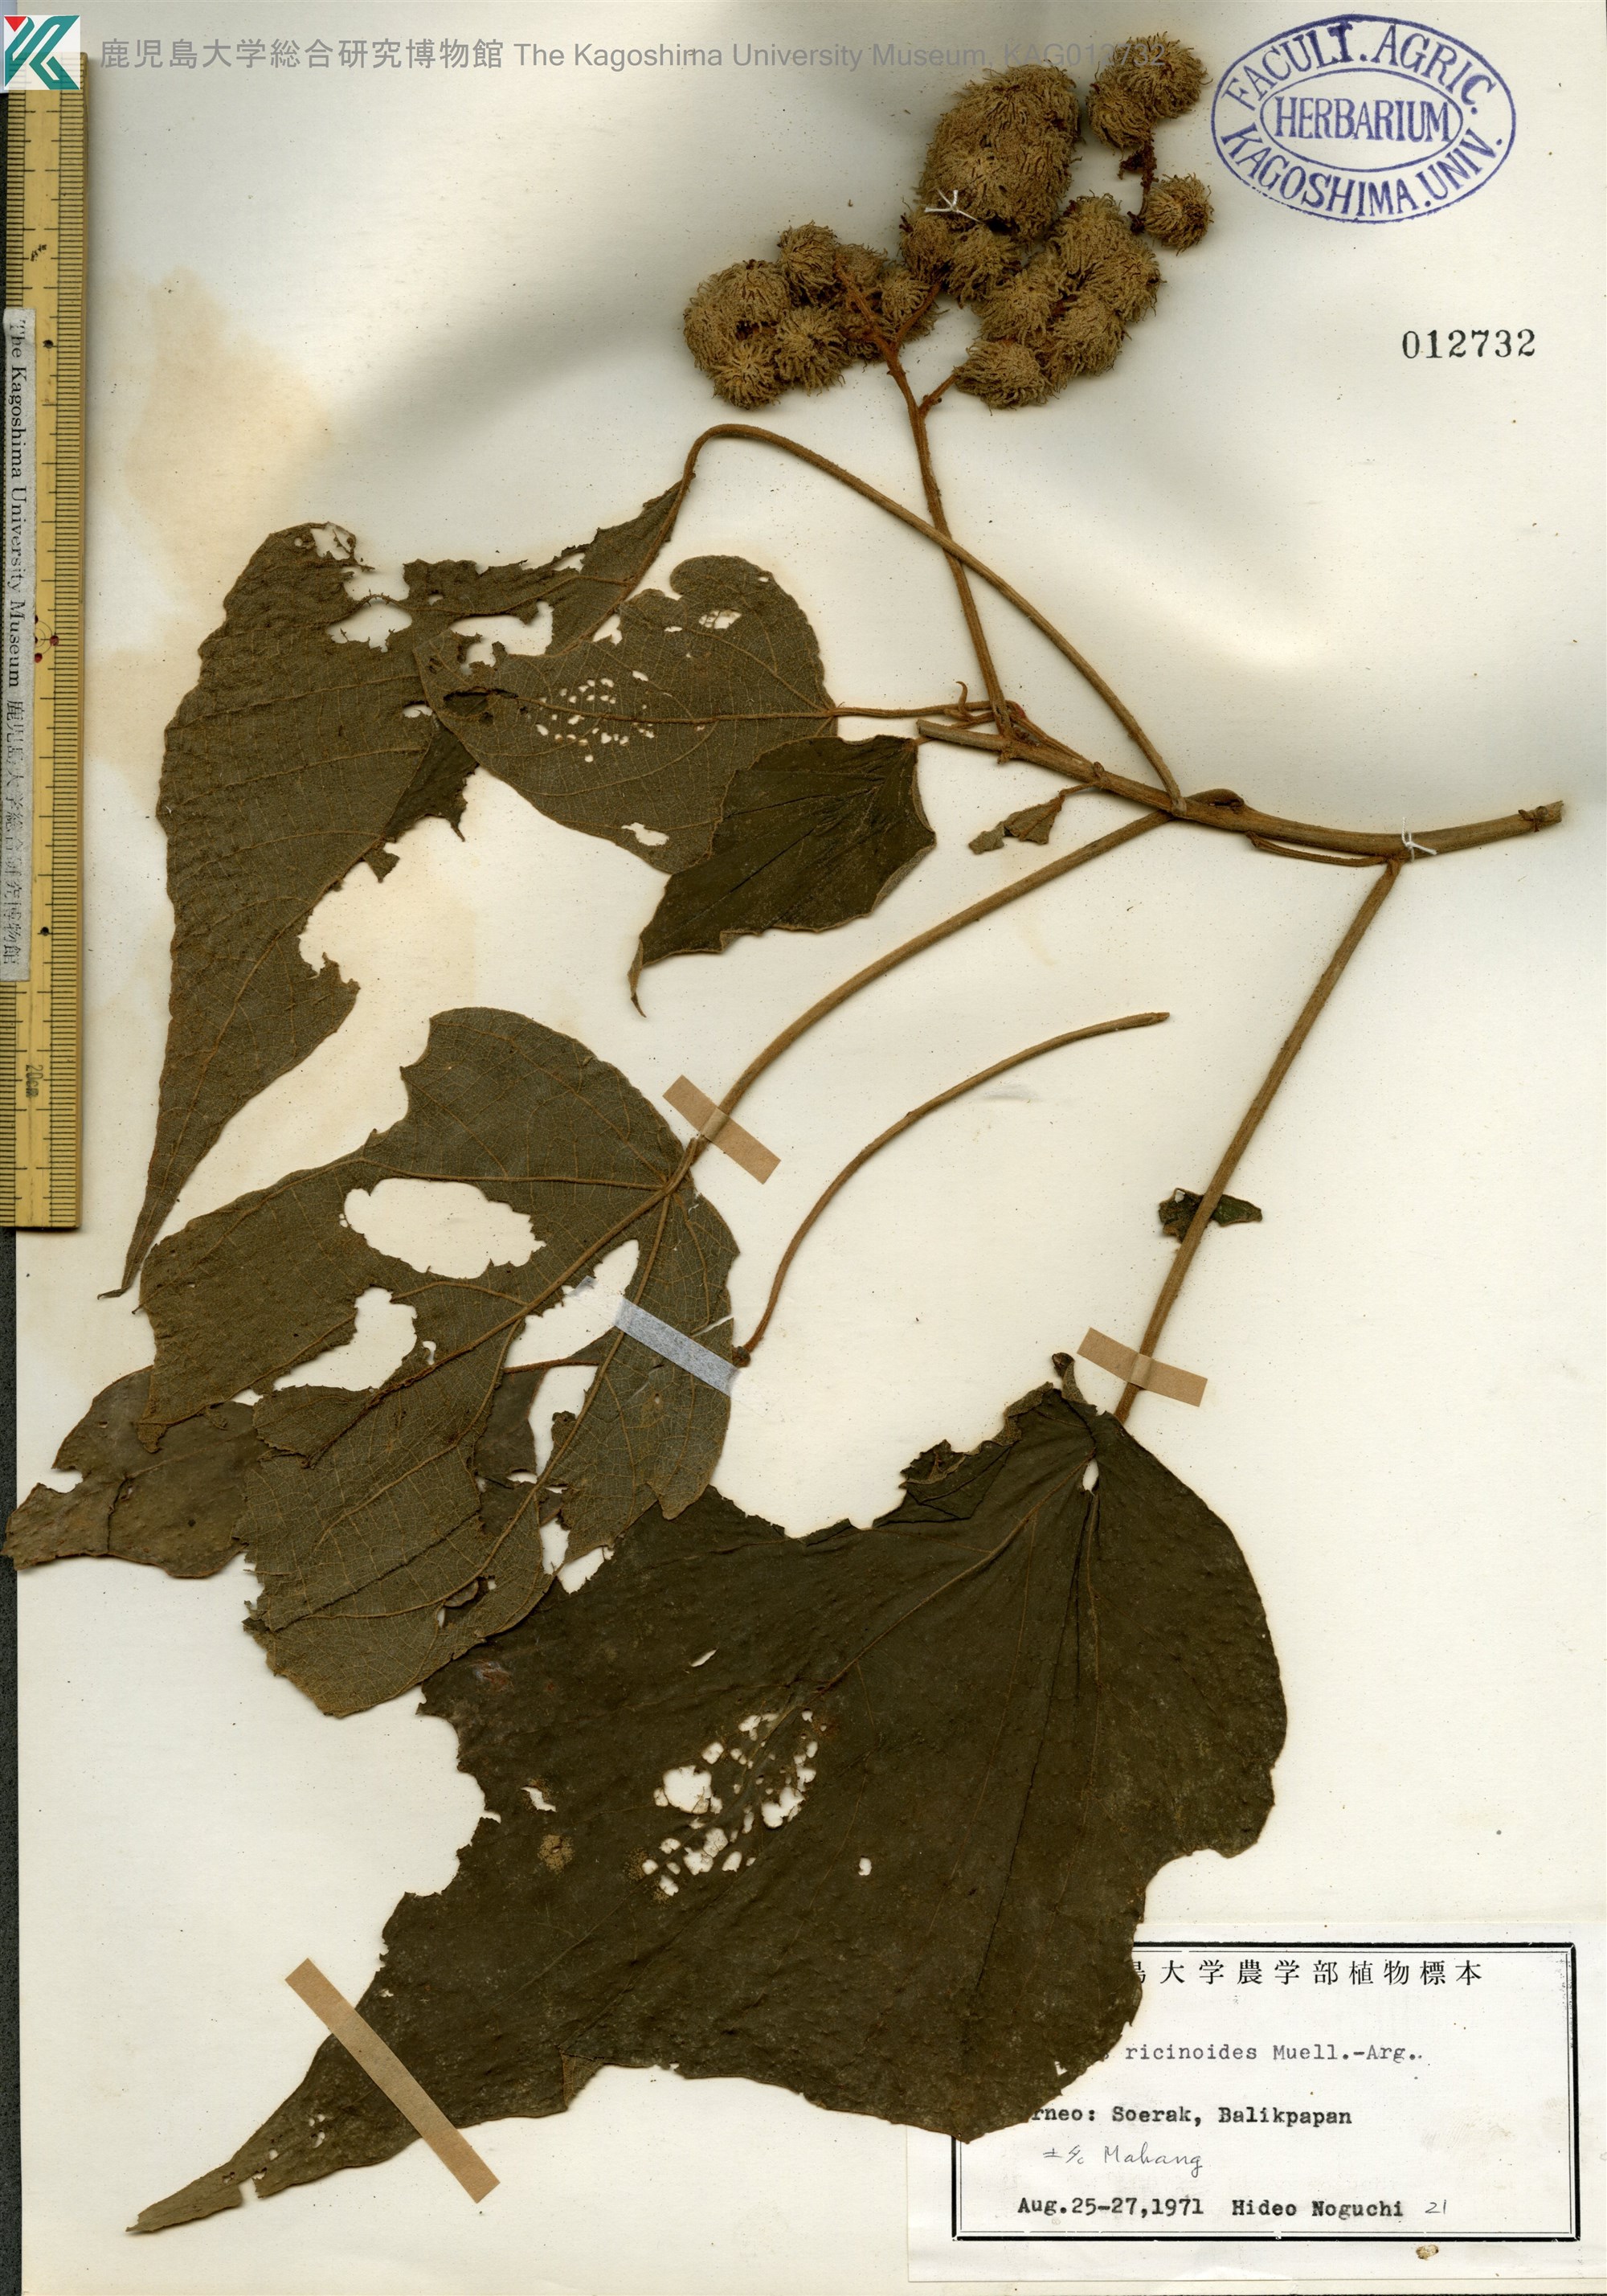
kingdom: Plantae
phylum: Tracheophyta
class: Magnoliopsida
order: Malpighiales
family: Euphorbiaceae
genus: Mallotus
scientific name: Mallotus mollissimus
